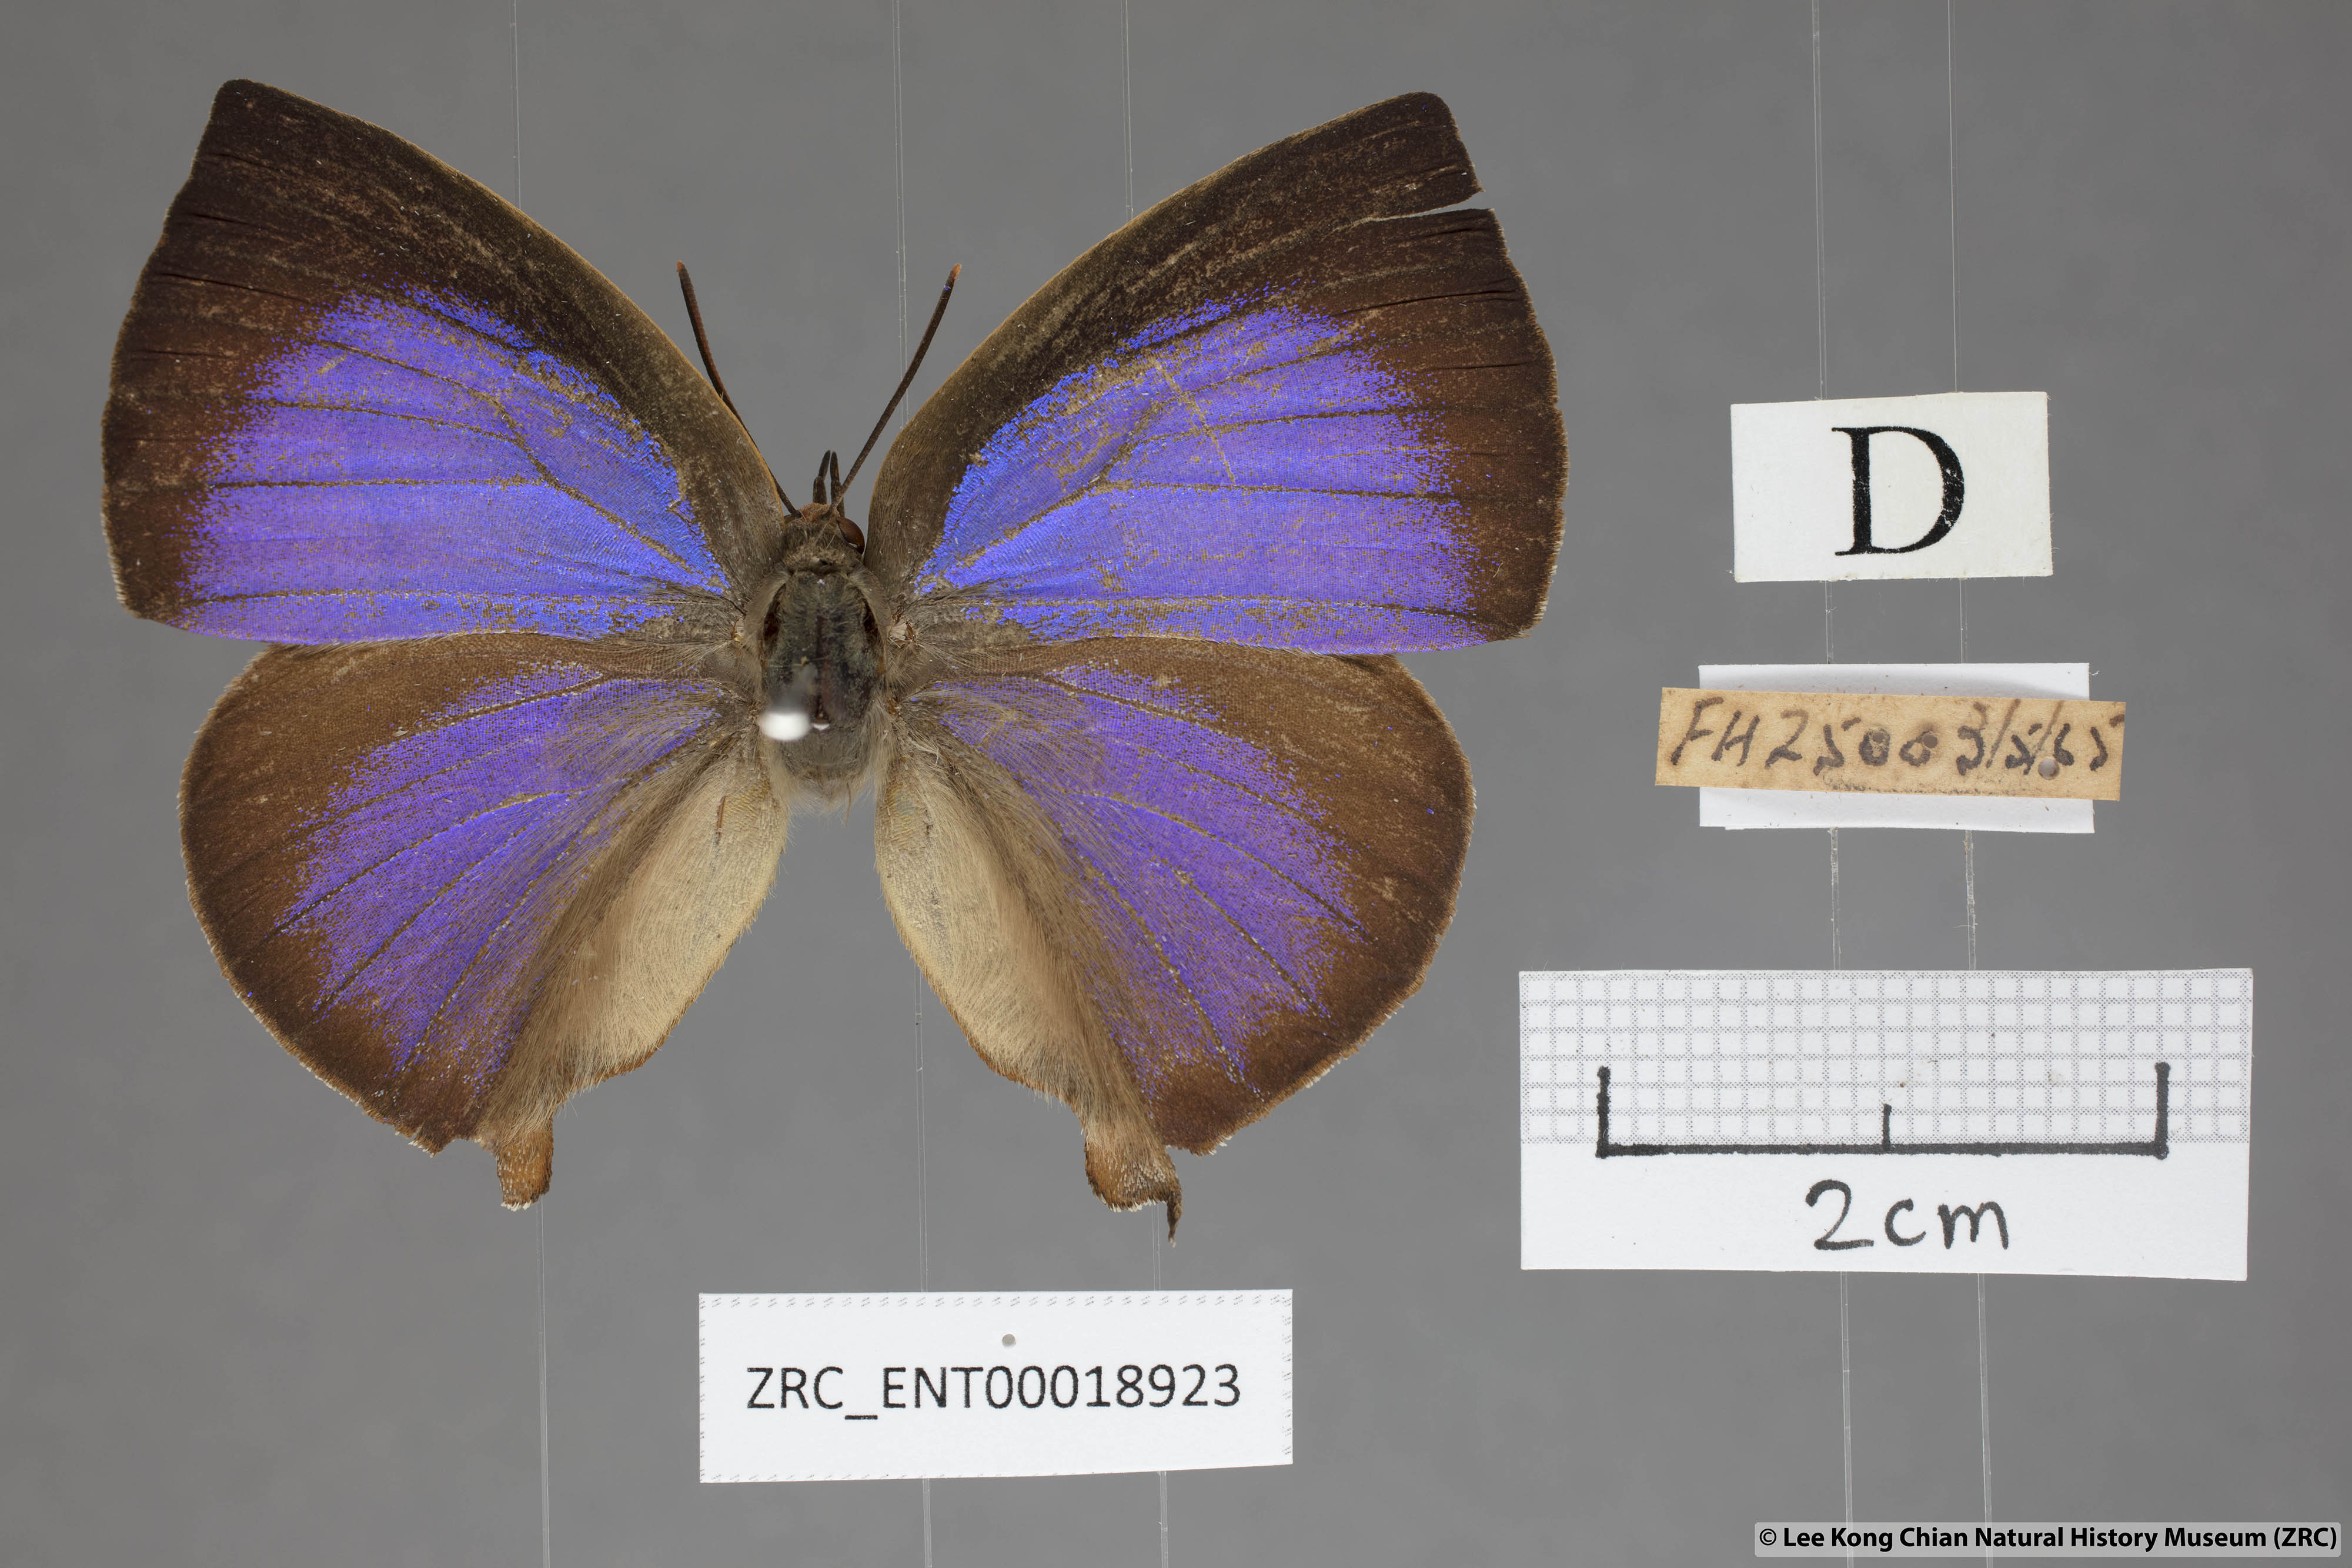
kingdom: Animalia
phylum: Arthropoda
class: Insecta
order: Lepidoptera
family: Lycaenidae
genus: Amblypodia
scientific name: Amblypodia narada
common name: Blue leaf blue
